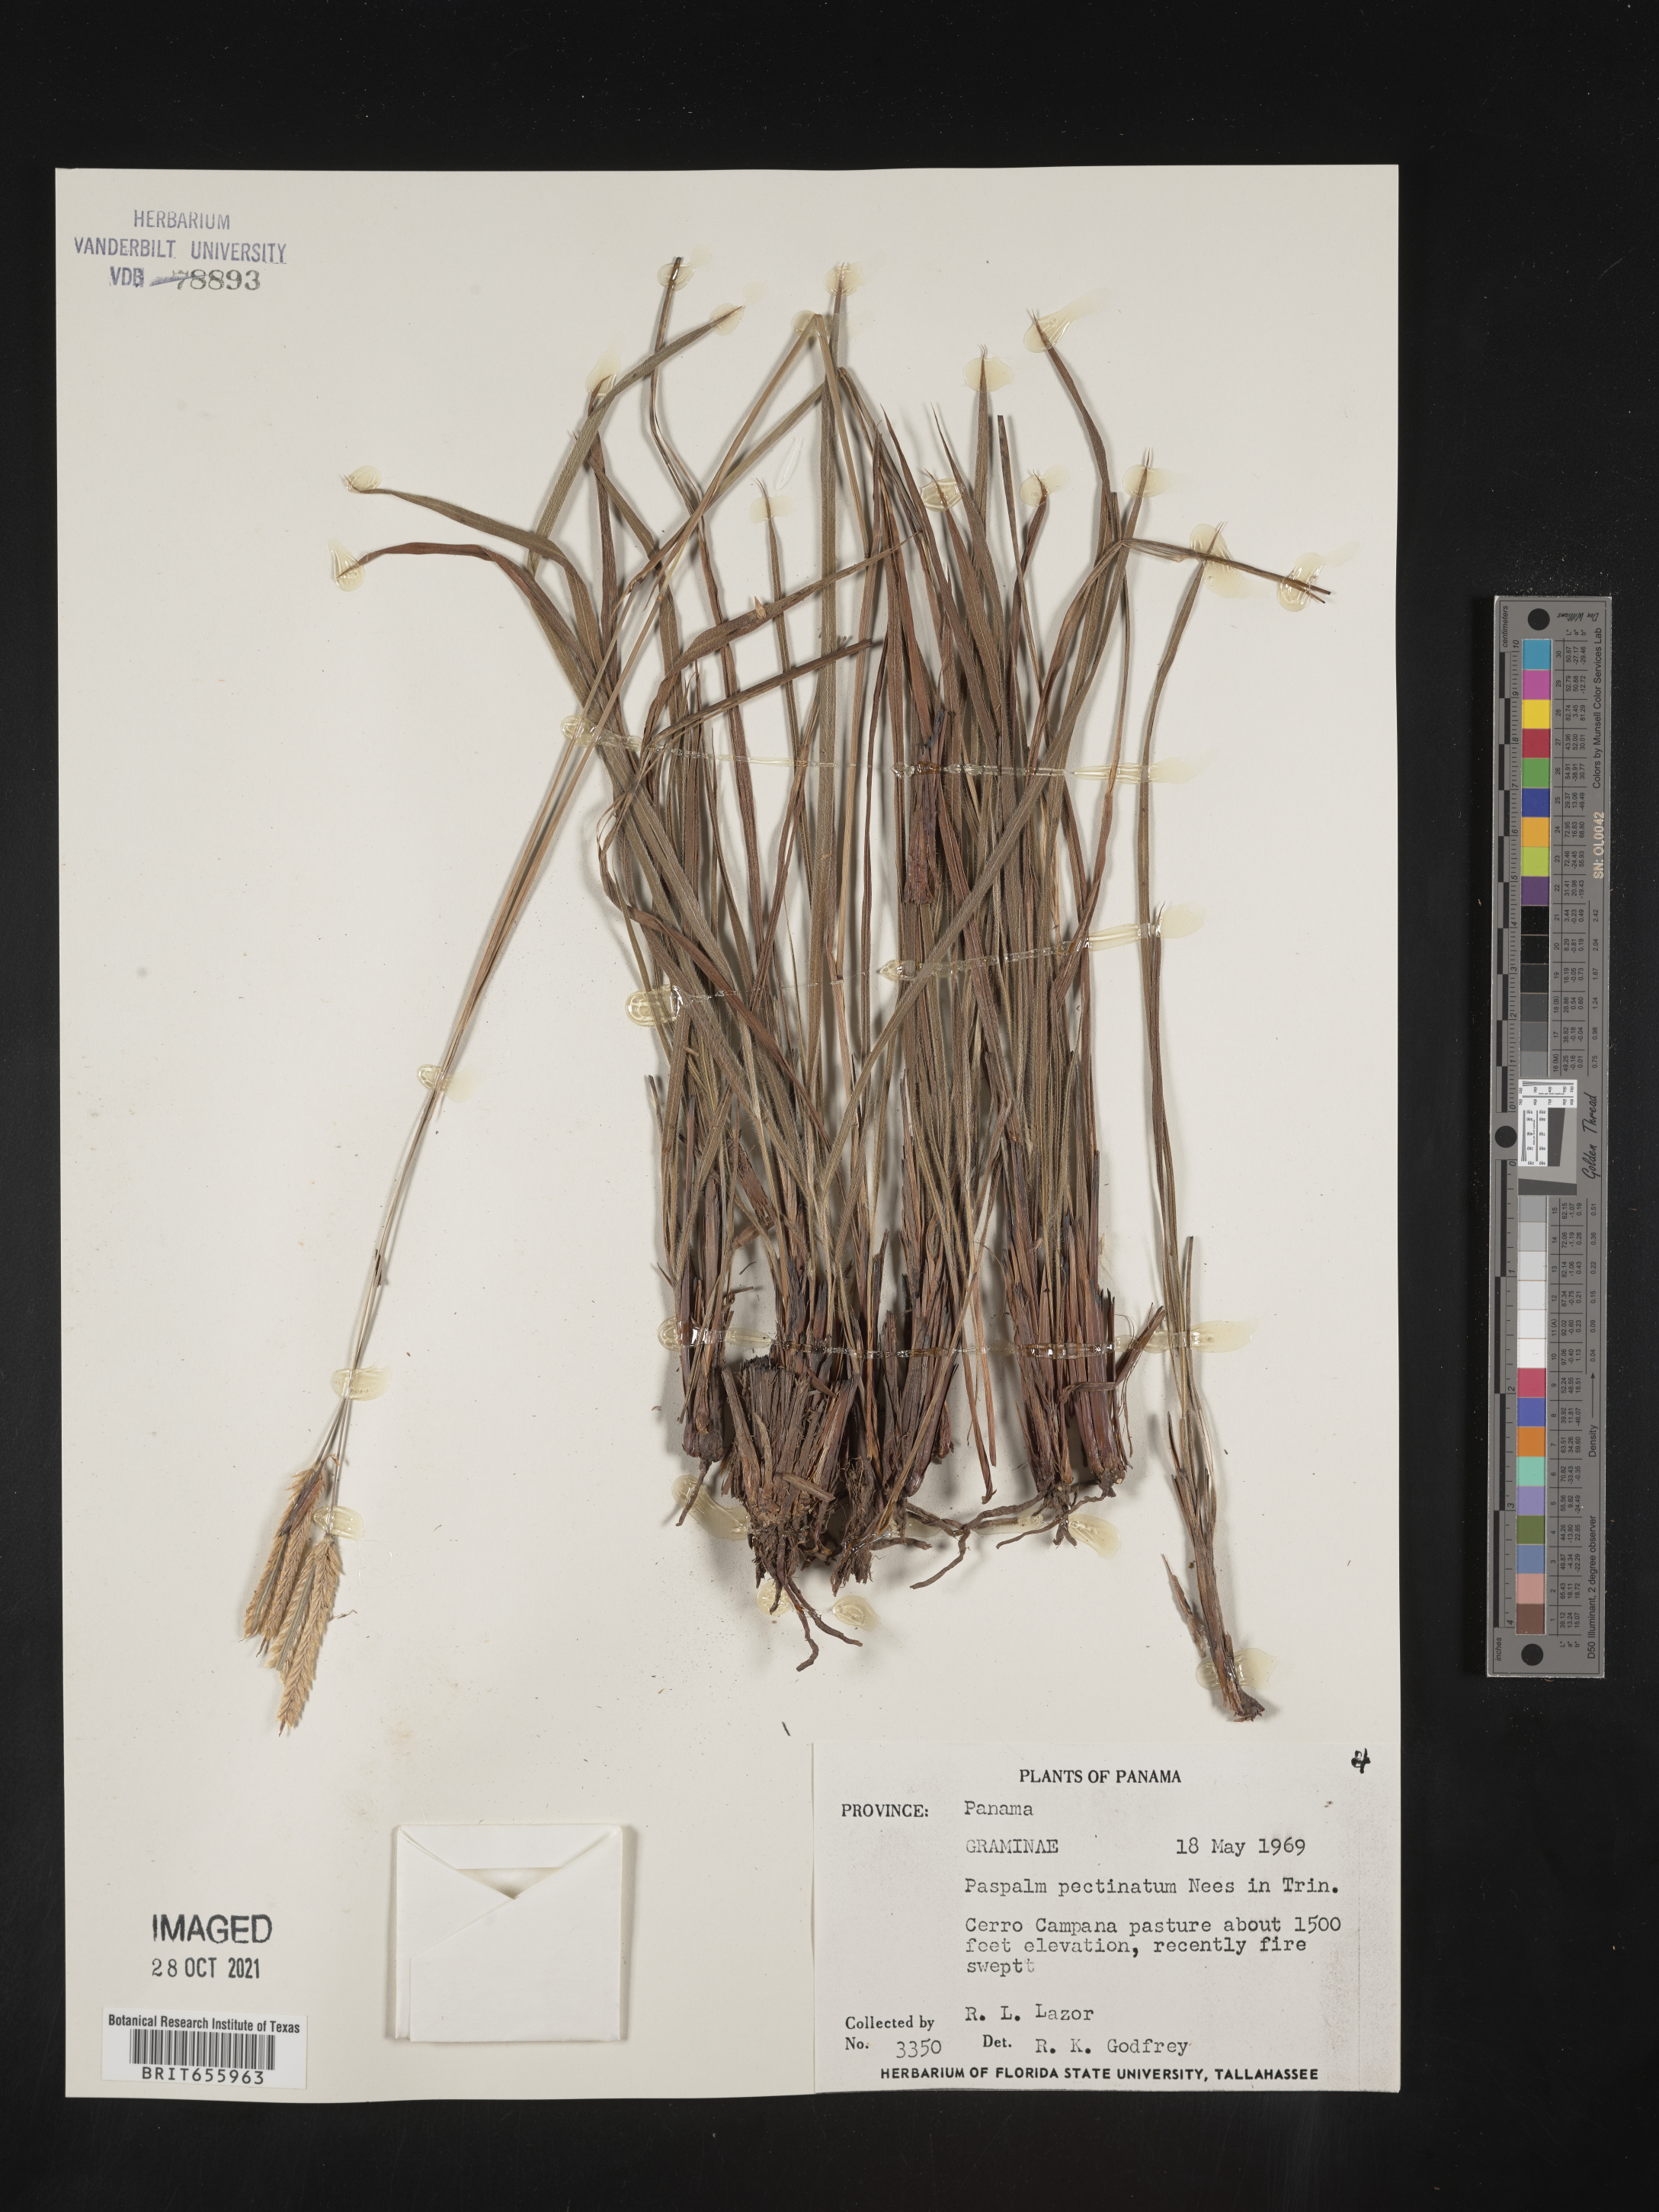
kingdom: Plantae
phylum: Tracheophyta
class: Liliopsida
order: Poales
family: Poaceae
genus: Paspalum
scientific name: Paspalum
